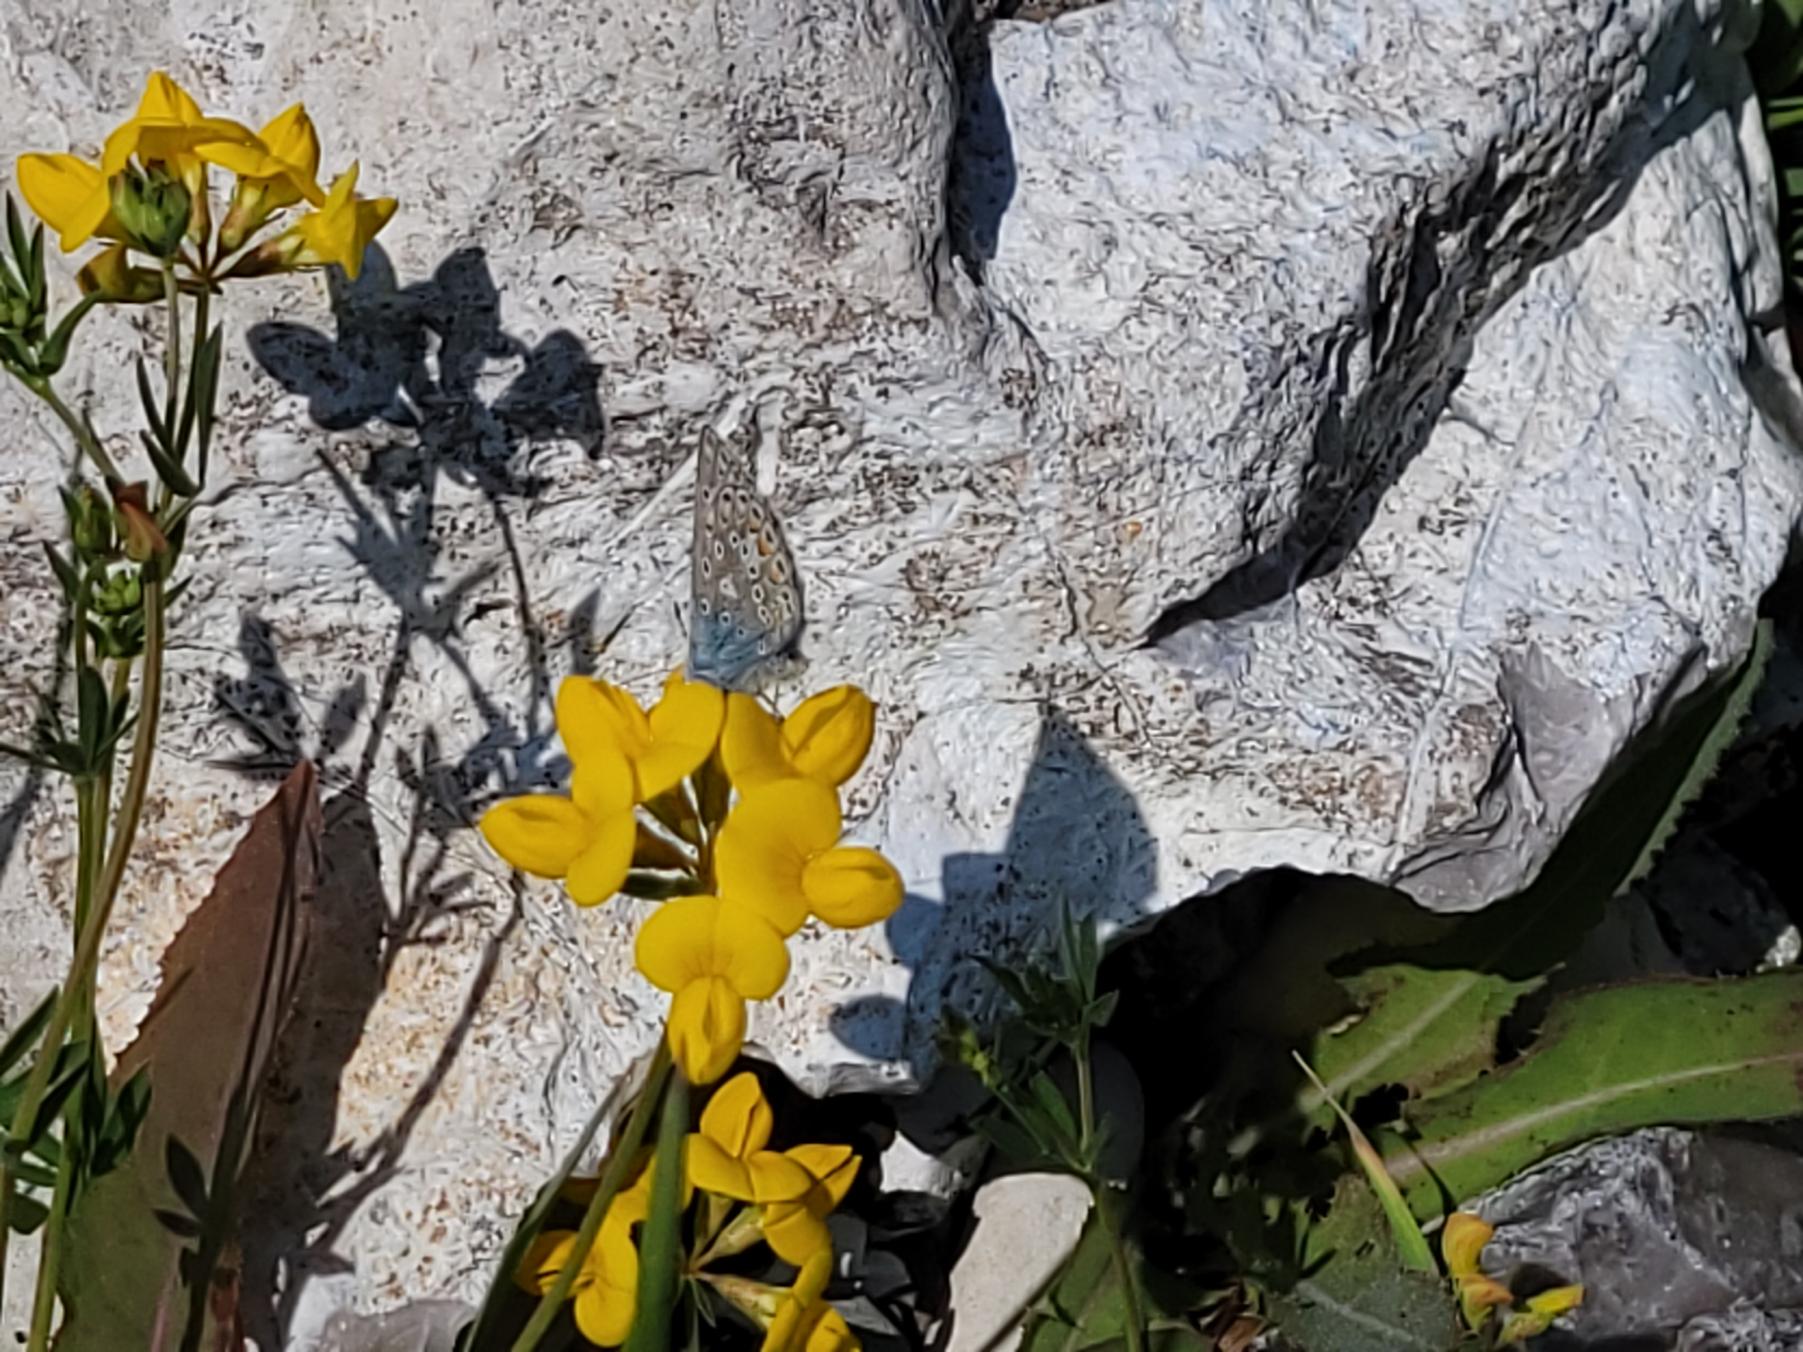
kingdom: Animalia
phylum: Arthropoda
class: Insecta
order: Lepidoptera
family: Lycaenidae
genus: Polyommatus
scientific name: Polyommatus icarus
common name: Almindelig blåfugl
